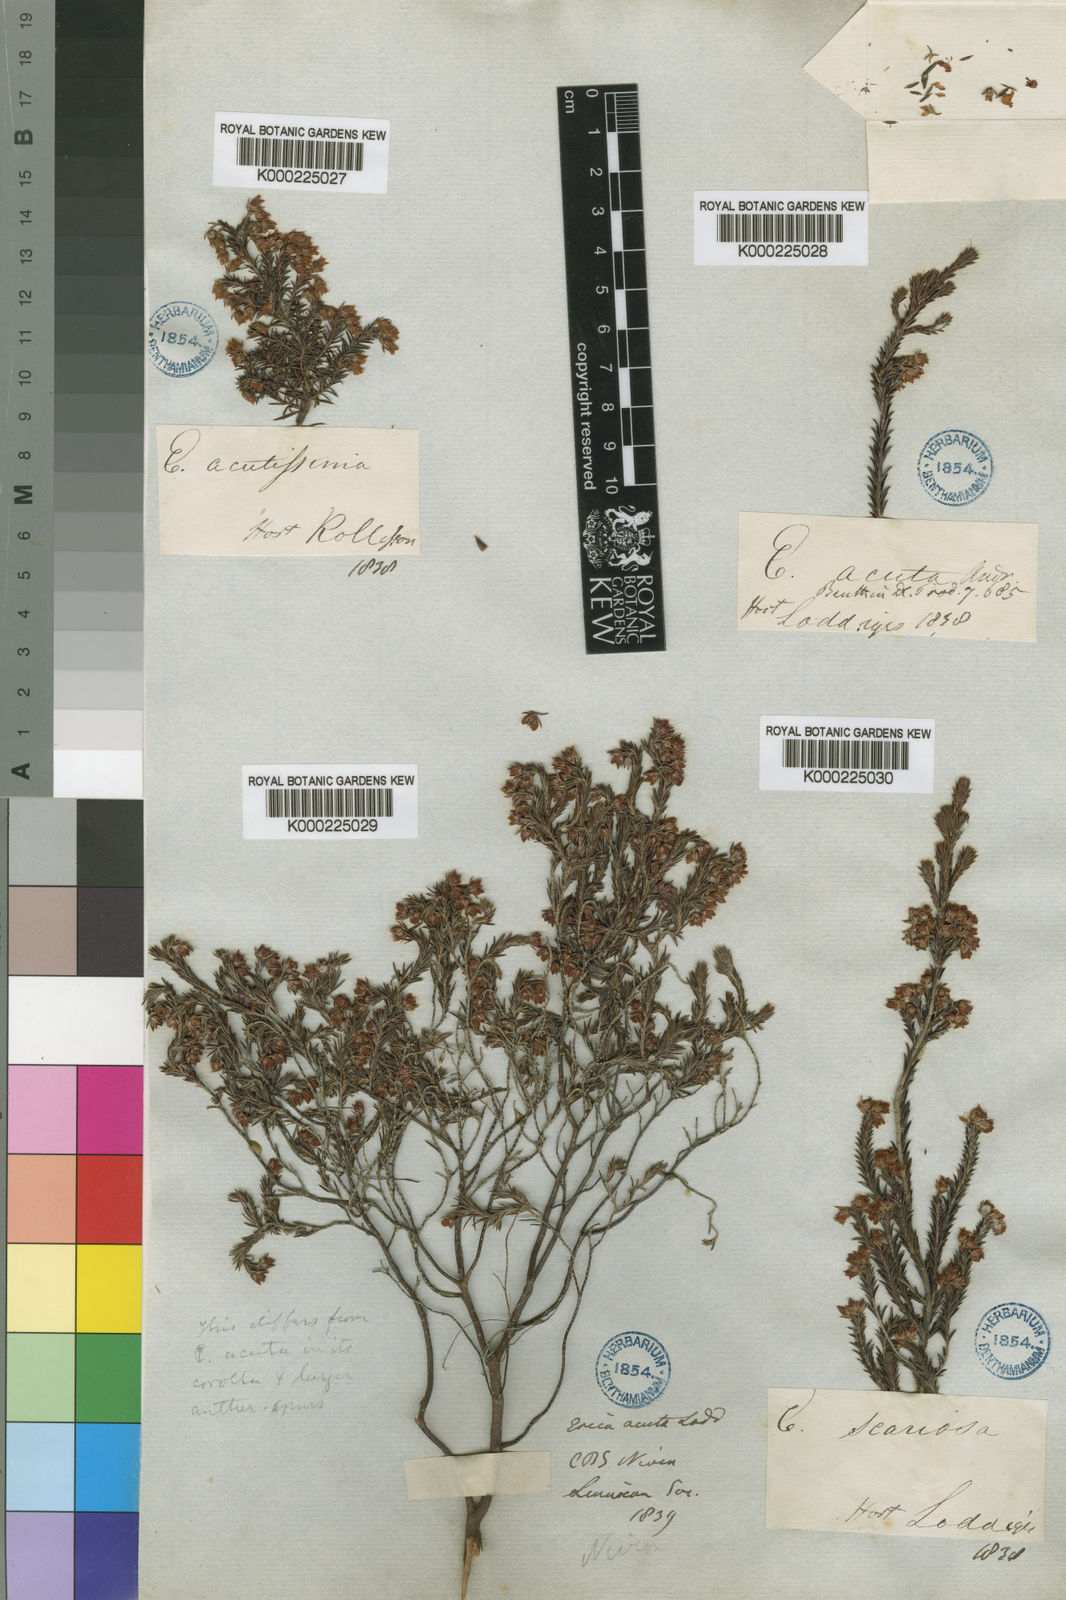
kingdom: Plantae
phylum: Tracheophyta
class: Magnoliopsida
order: Ericales
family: Ericaceae
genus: Erica
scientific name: Erica acuta
